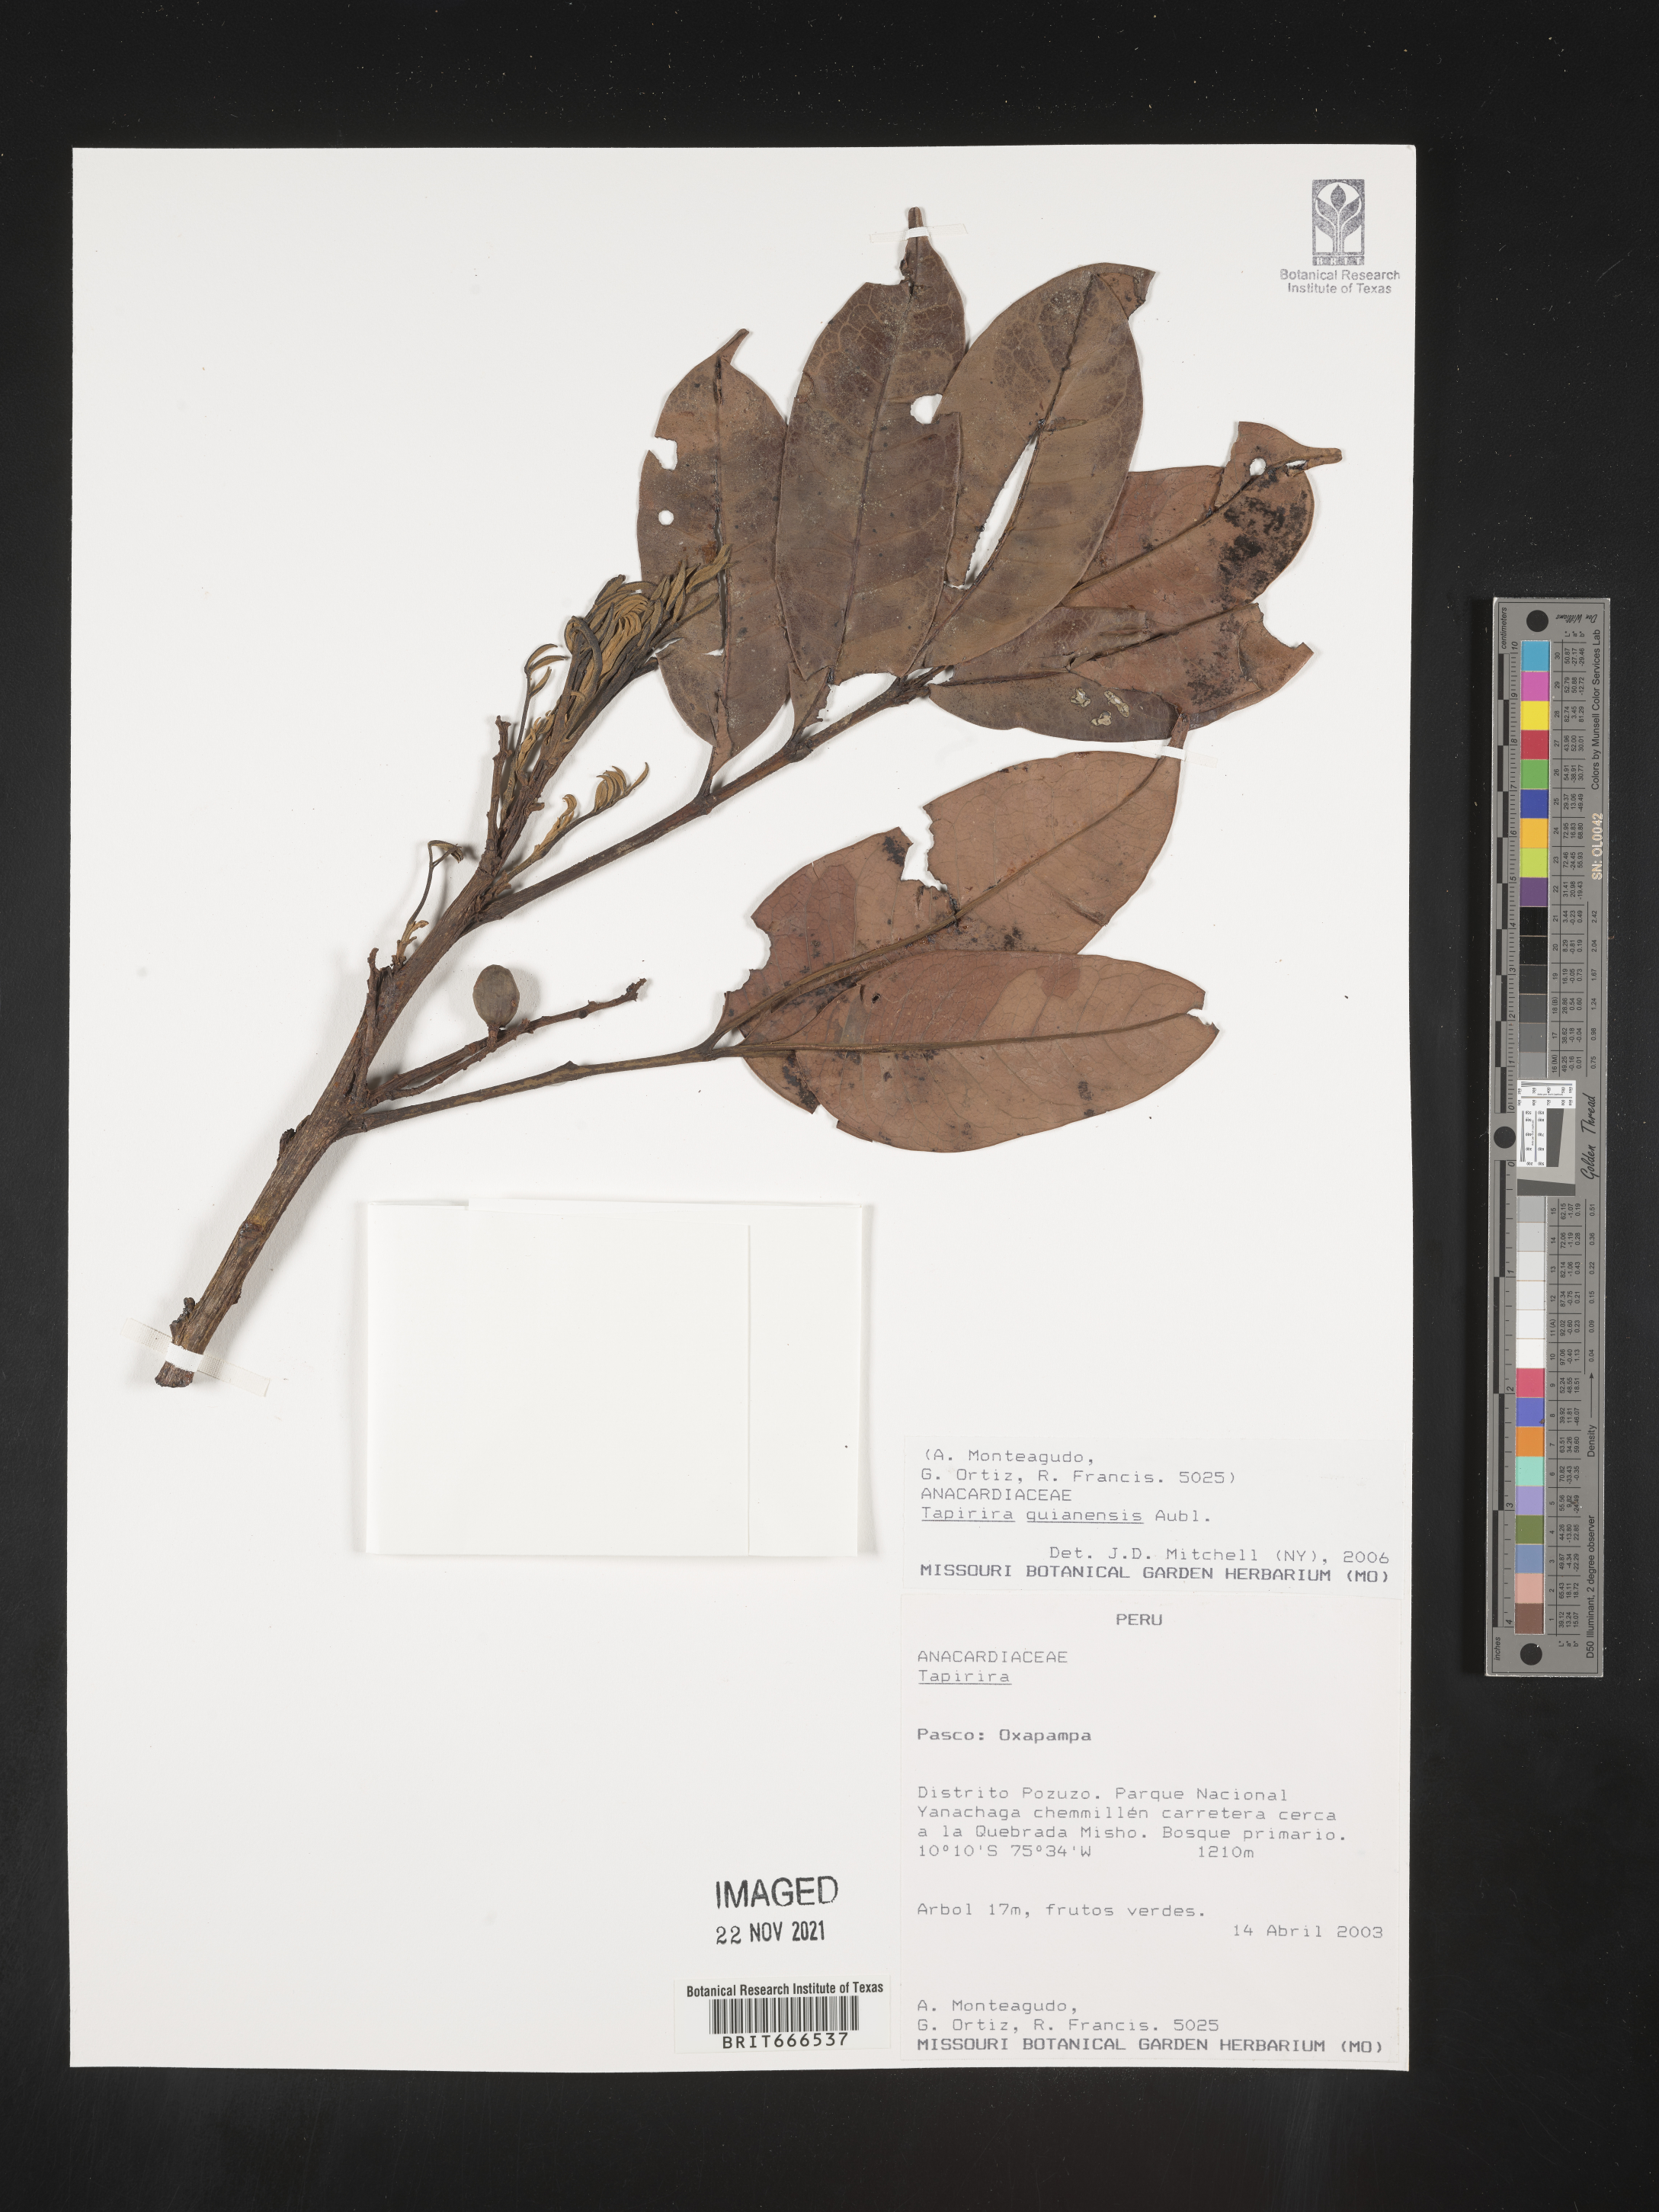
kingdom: Plantae
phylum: Tracheophyta
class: Magnoliopsida
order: Sapindales
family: Anacardiaceae
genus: Tapirira
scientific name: Tapirira
